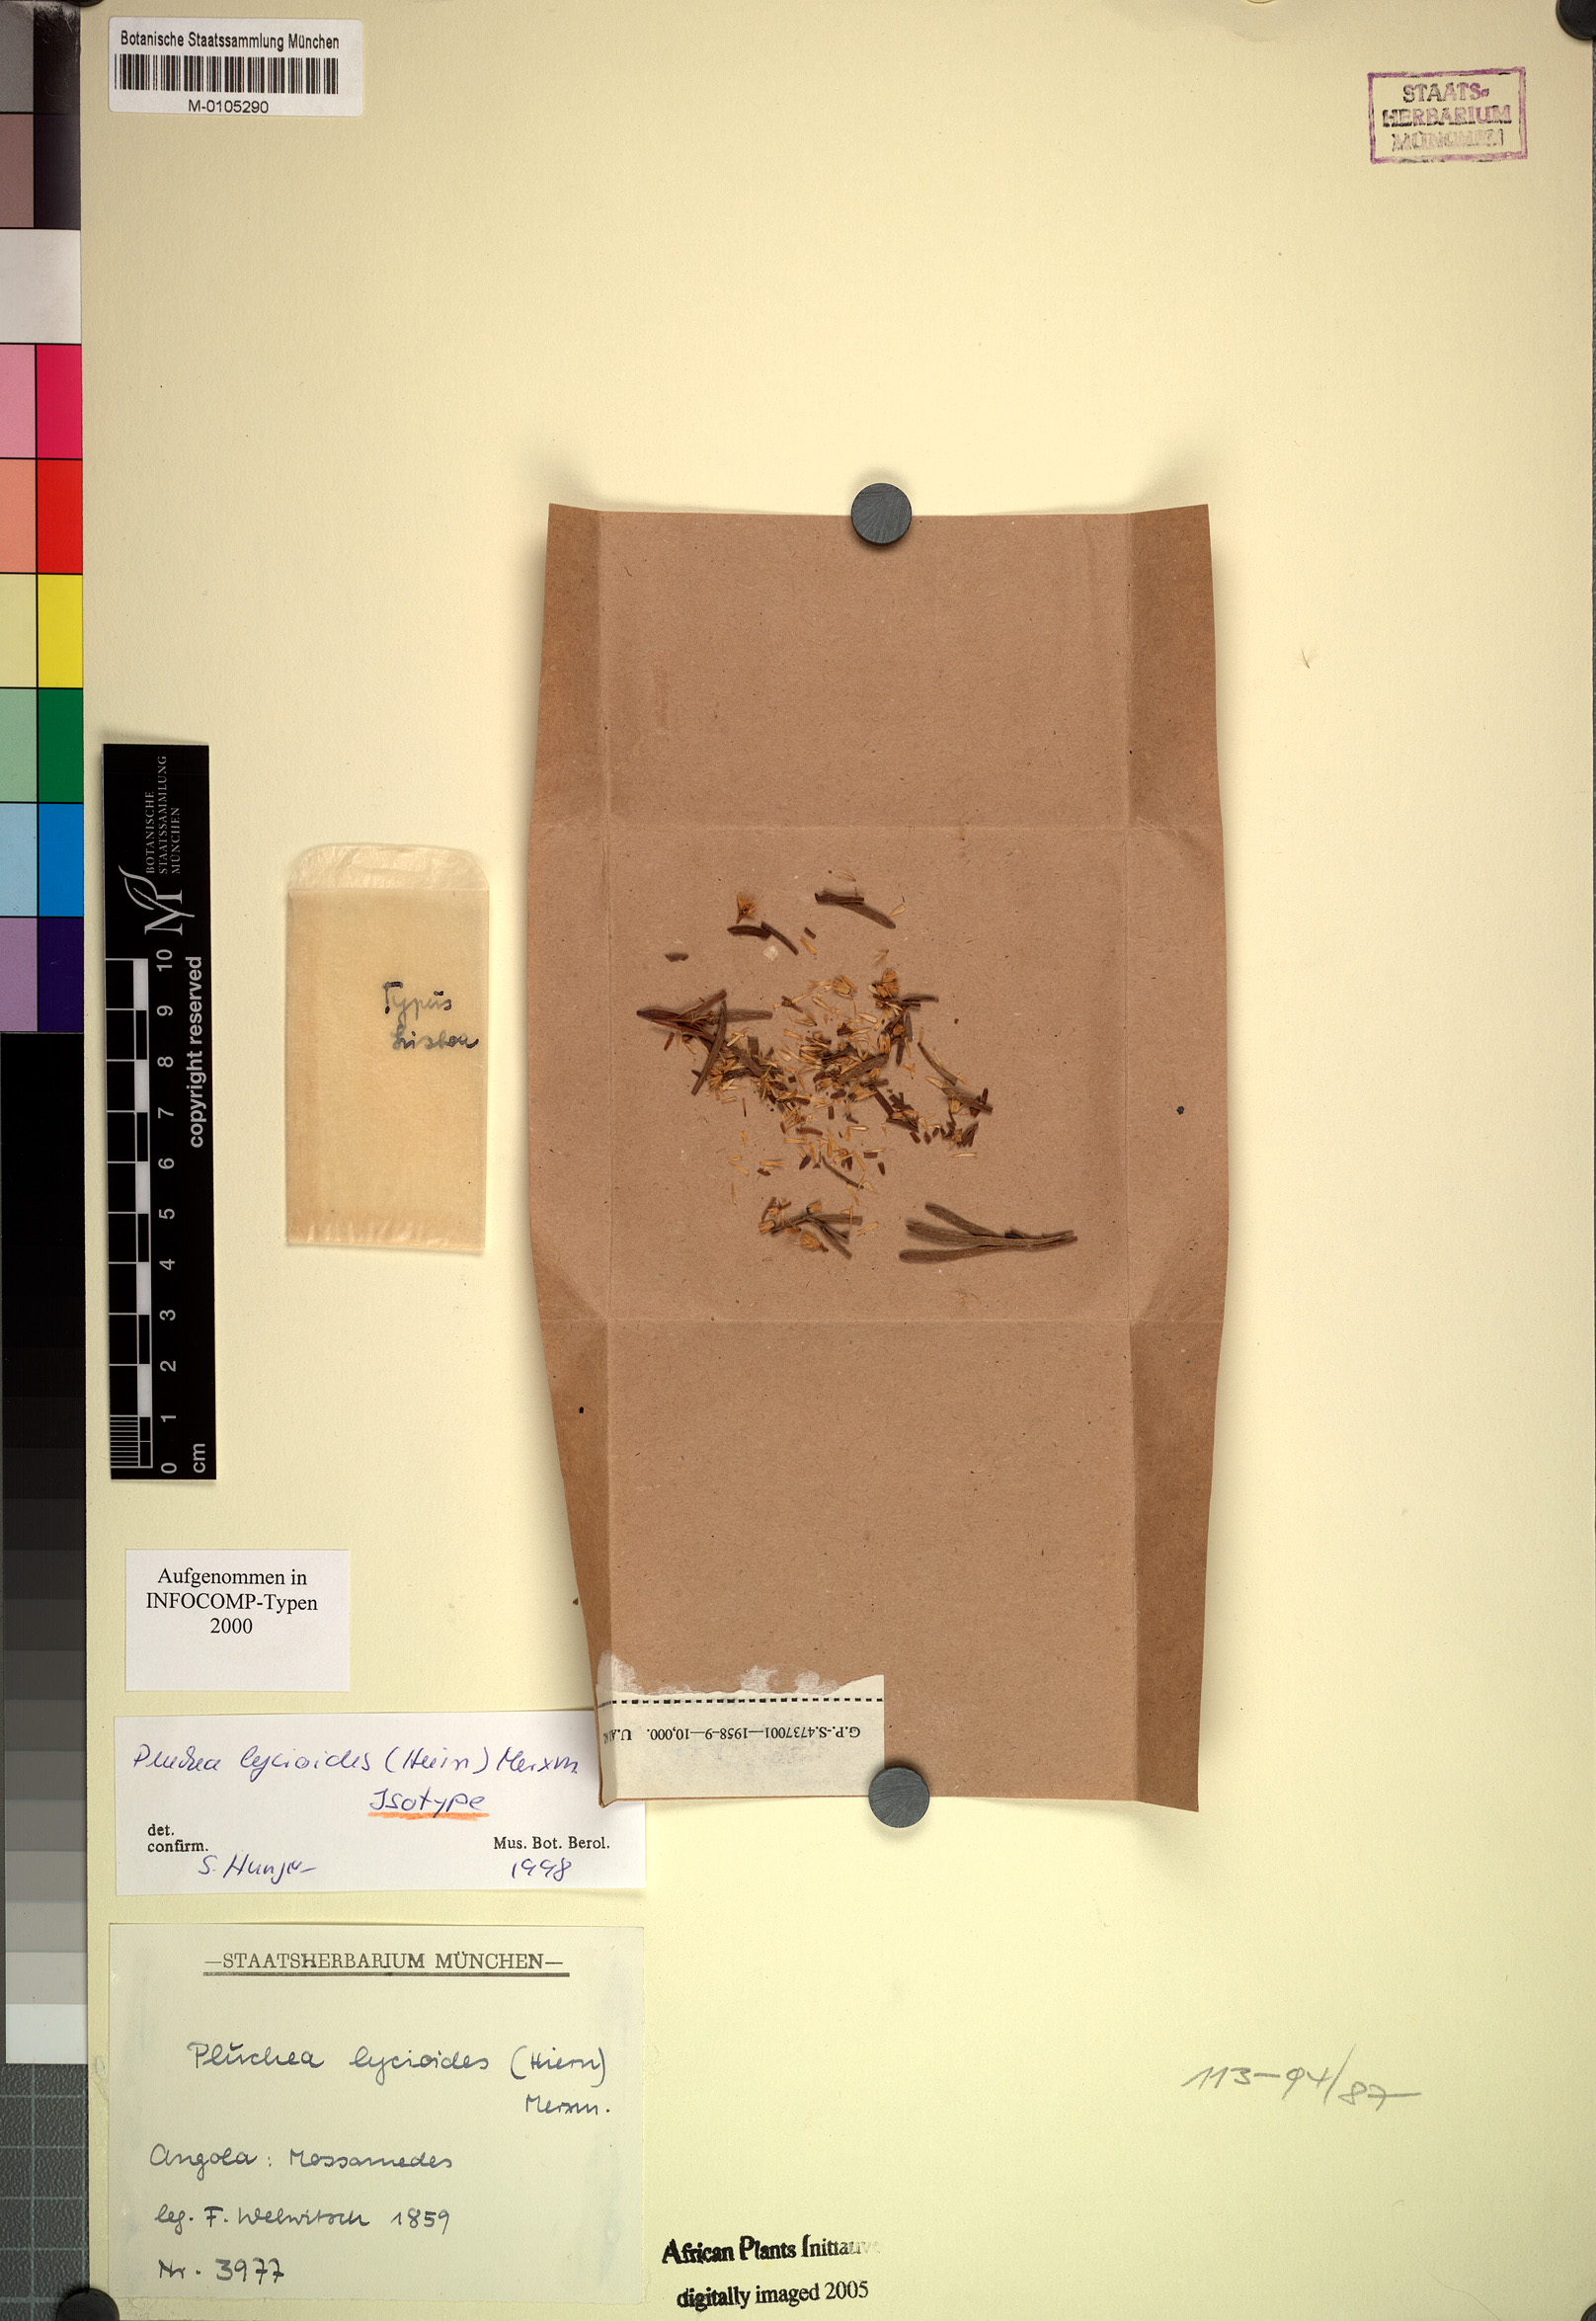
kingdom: Plantae
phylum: Tracheophyta
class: Magnoliopsida
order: Asterales
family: Asteraceae
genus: Pluchea
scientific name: Pluchea lycioides
